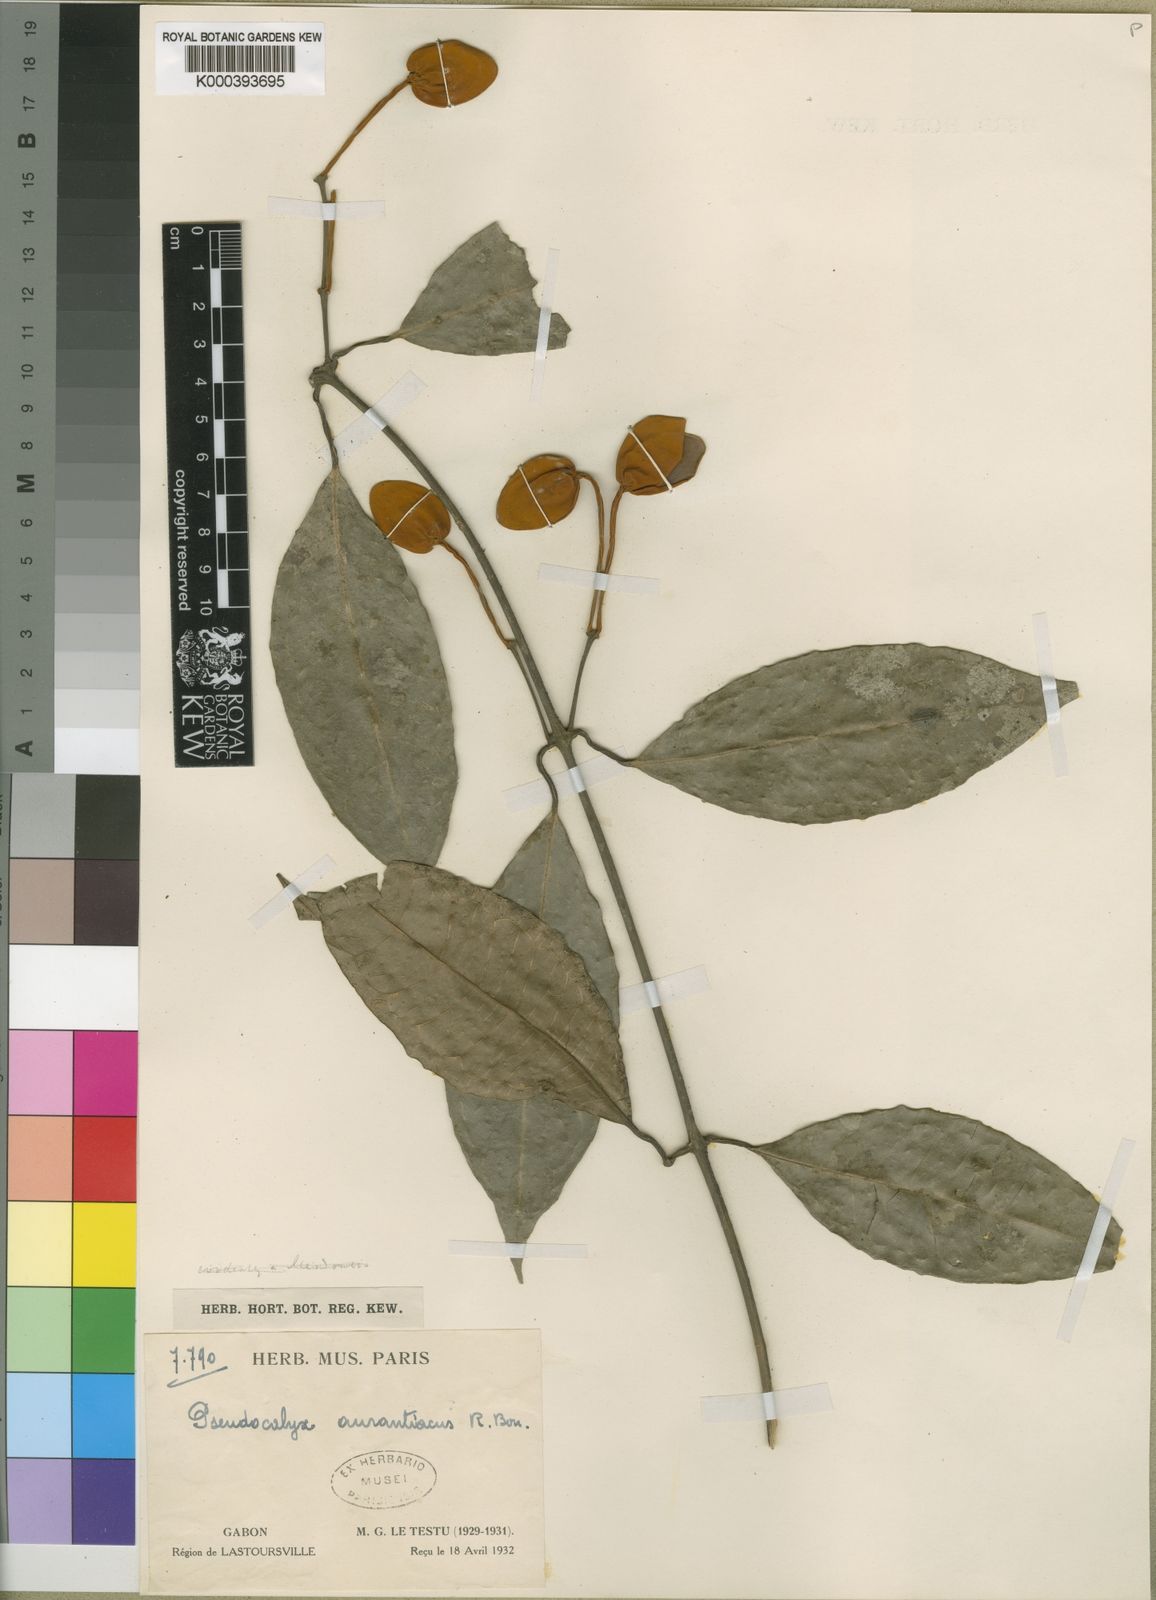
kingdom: Plantae
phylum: Tracheophyta
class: Magnoliopsida
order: Lamiales
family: Acanthaceae
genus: Pseudocalyx
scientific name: Pseudocalyx aurantiacus
